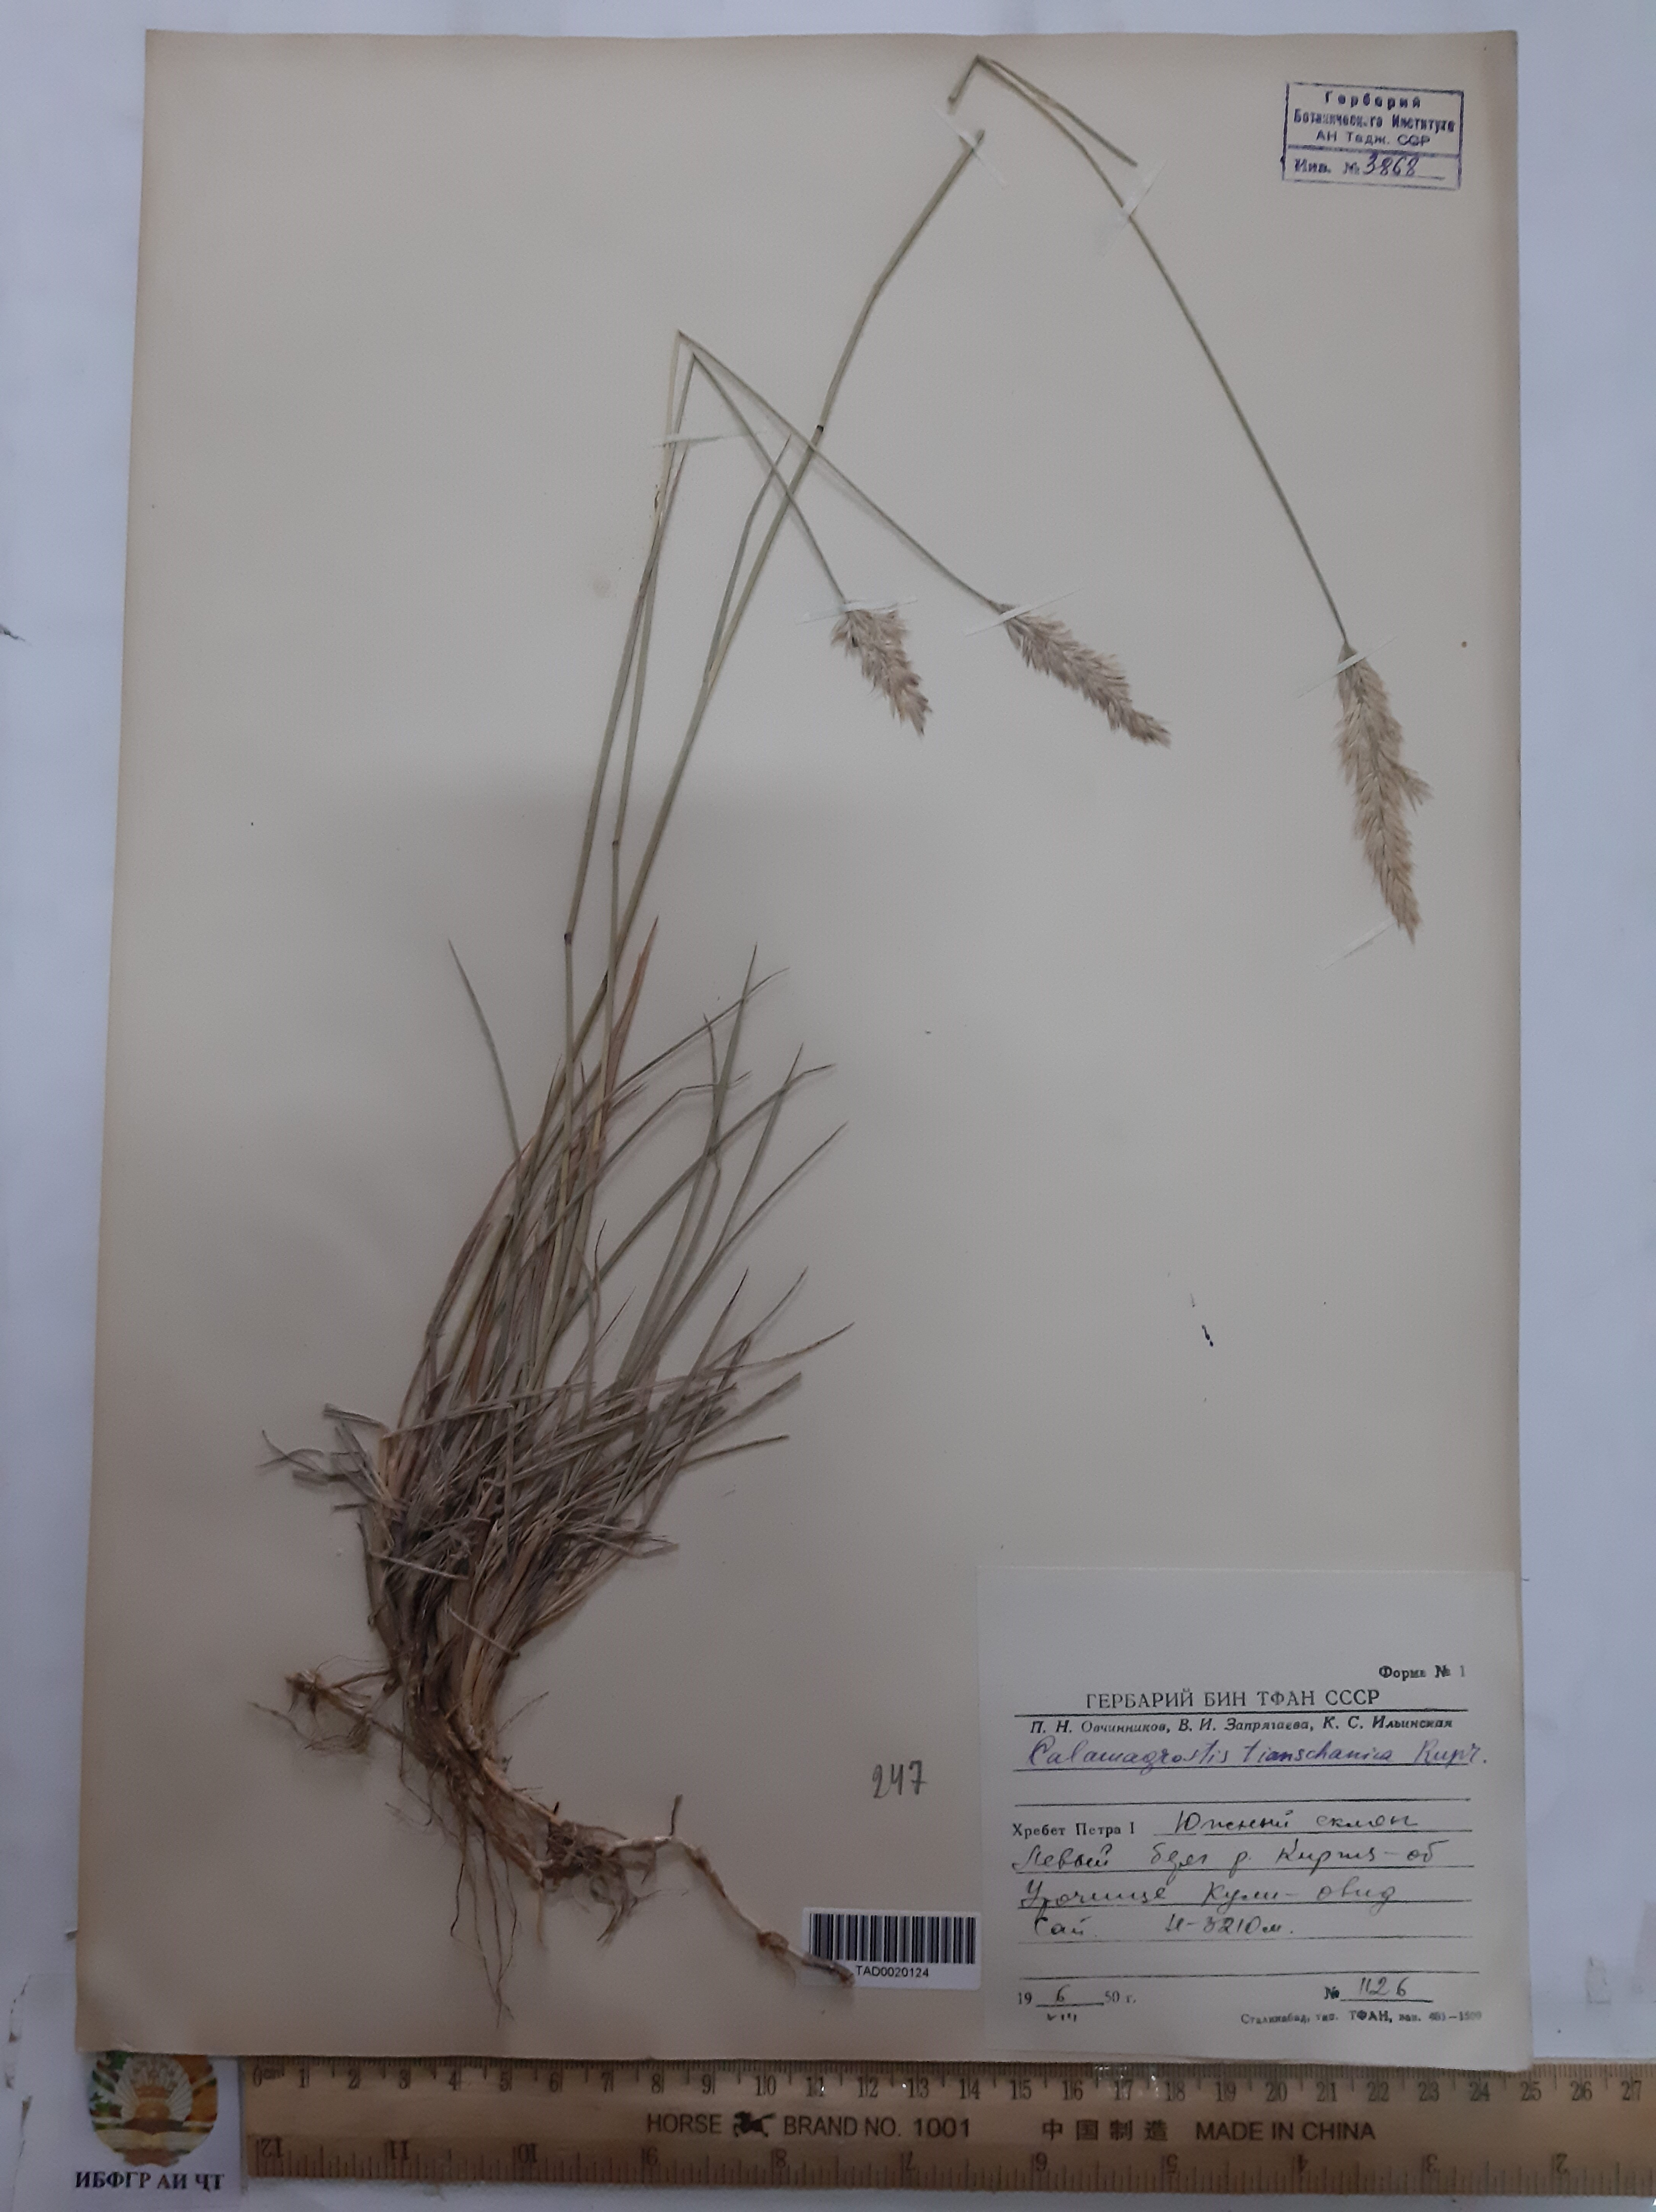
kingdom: Plantae
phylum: Tracheophyta
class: Liliopsida
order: Poales
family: Poaceae
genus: Calamagrostis
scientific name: Calamagrostis tianschanica
